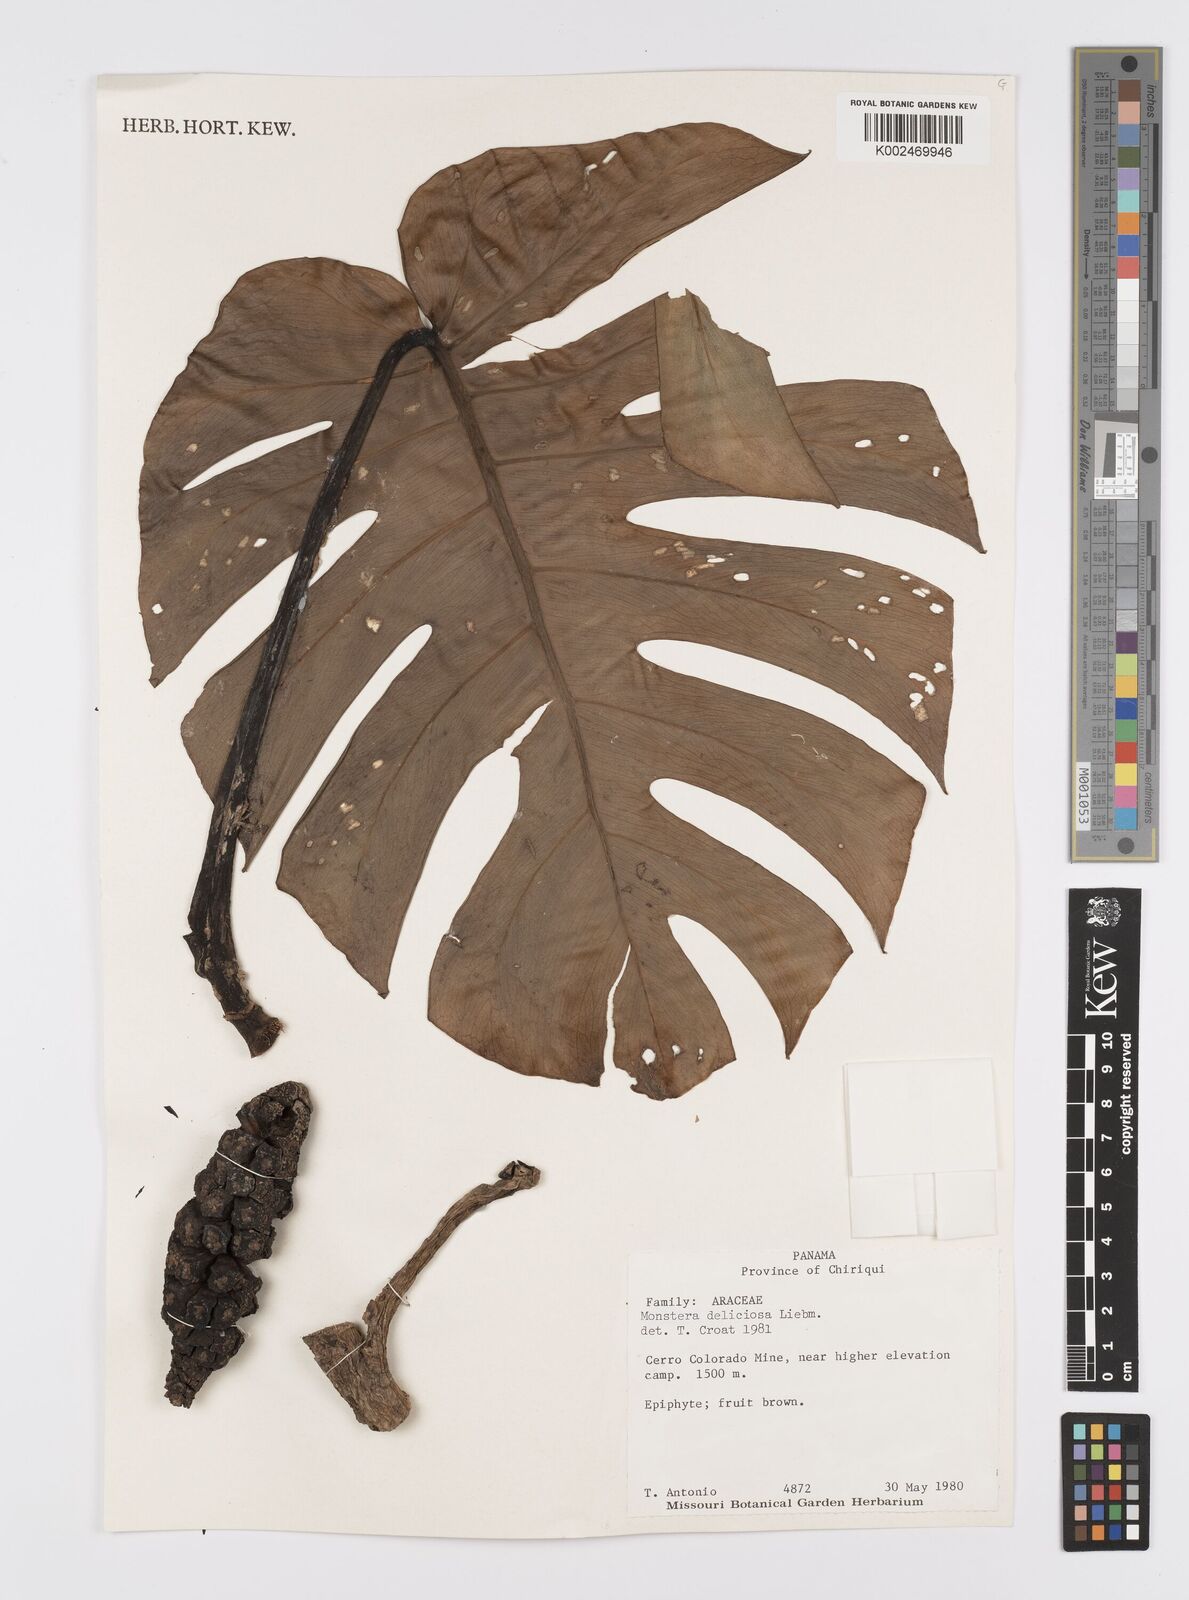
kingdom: Plantae
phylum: Tracheophyta
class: Liliopsida
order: Alismatales
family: Araceae
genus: Monstera
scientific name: Monstera deliciosa
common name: Cut-leaf-philodendron
